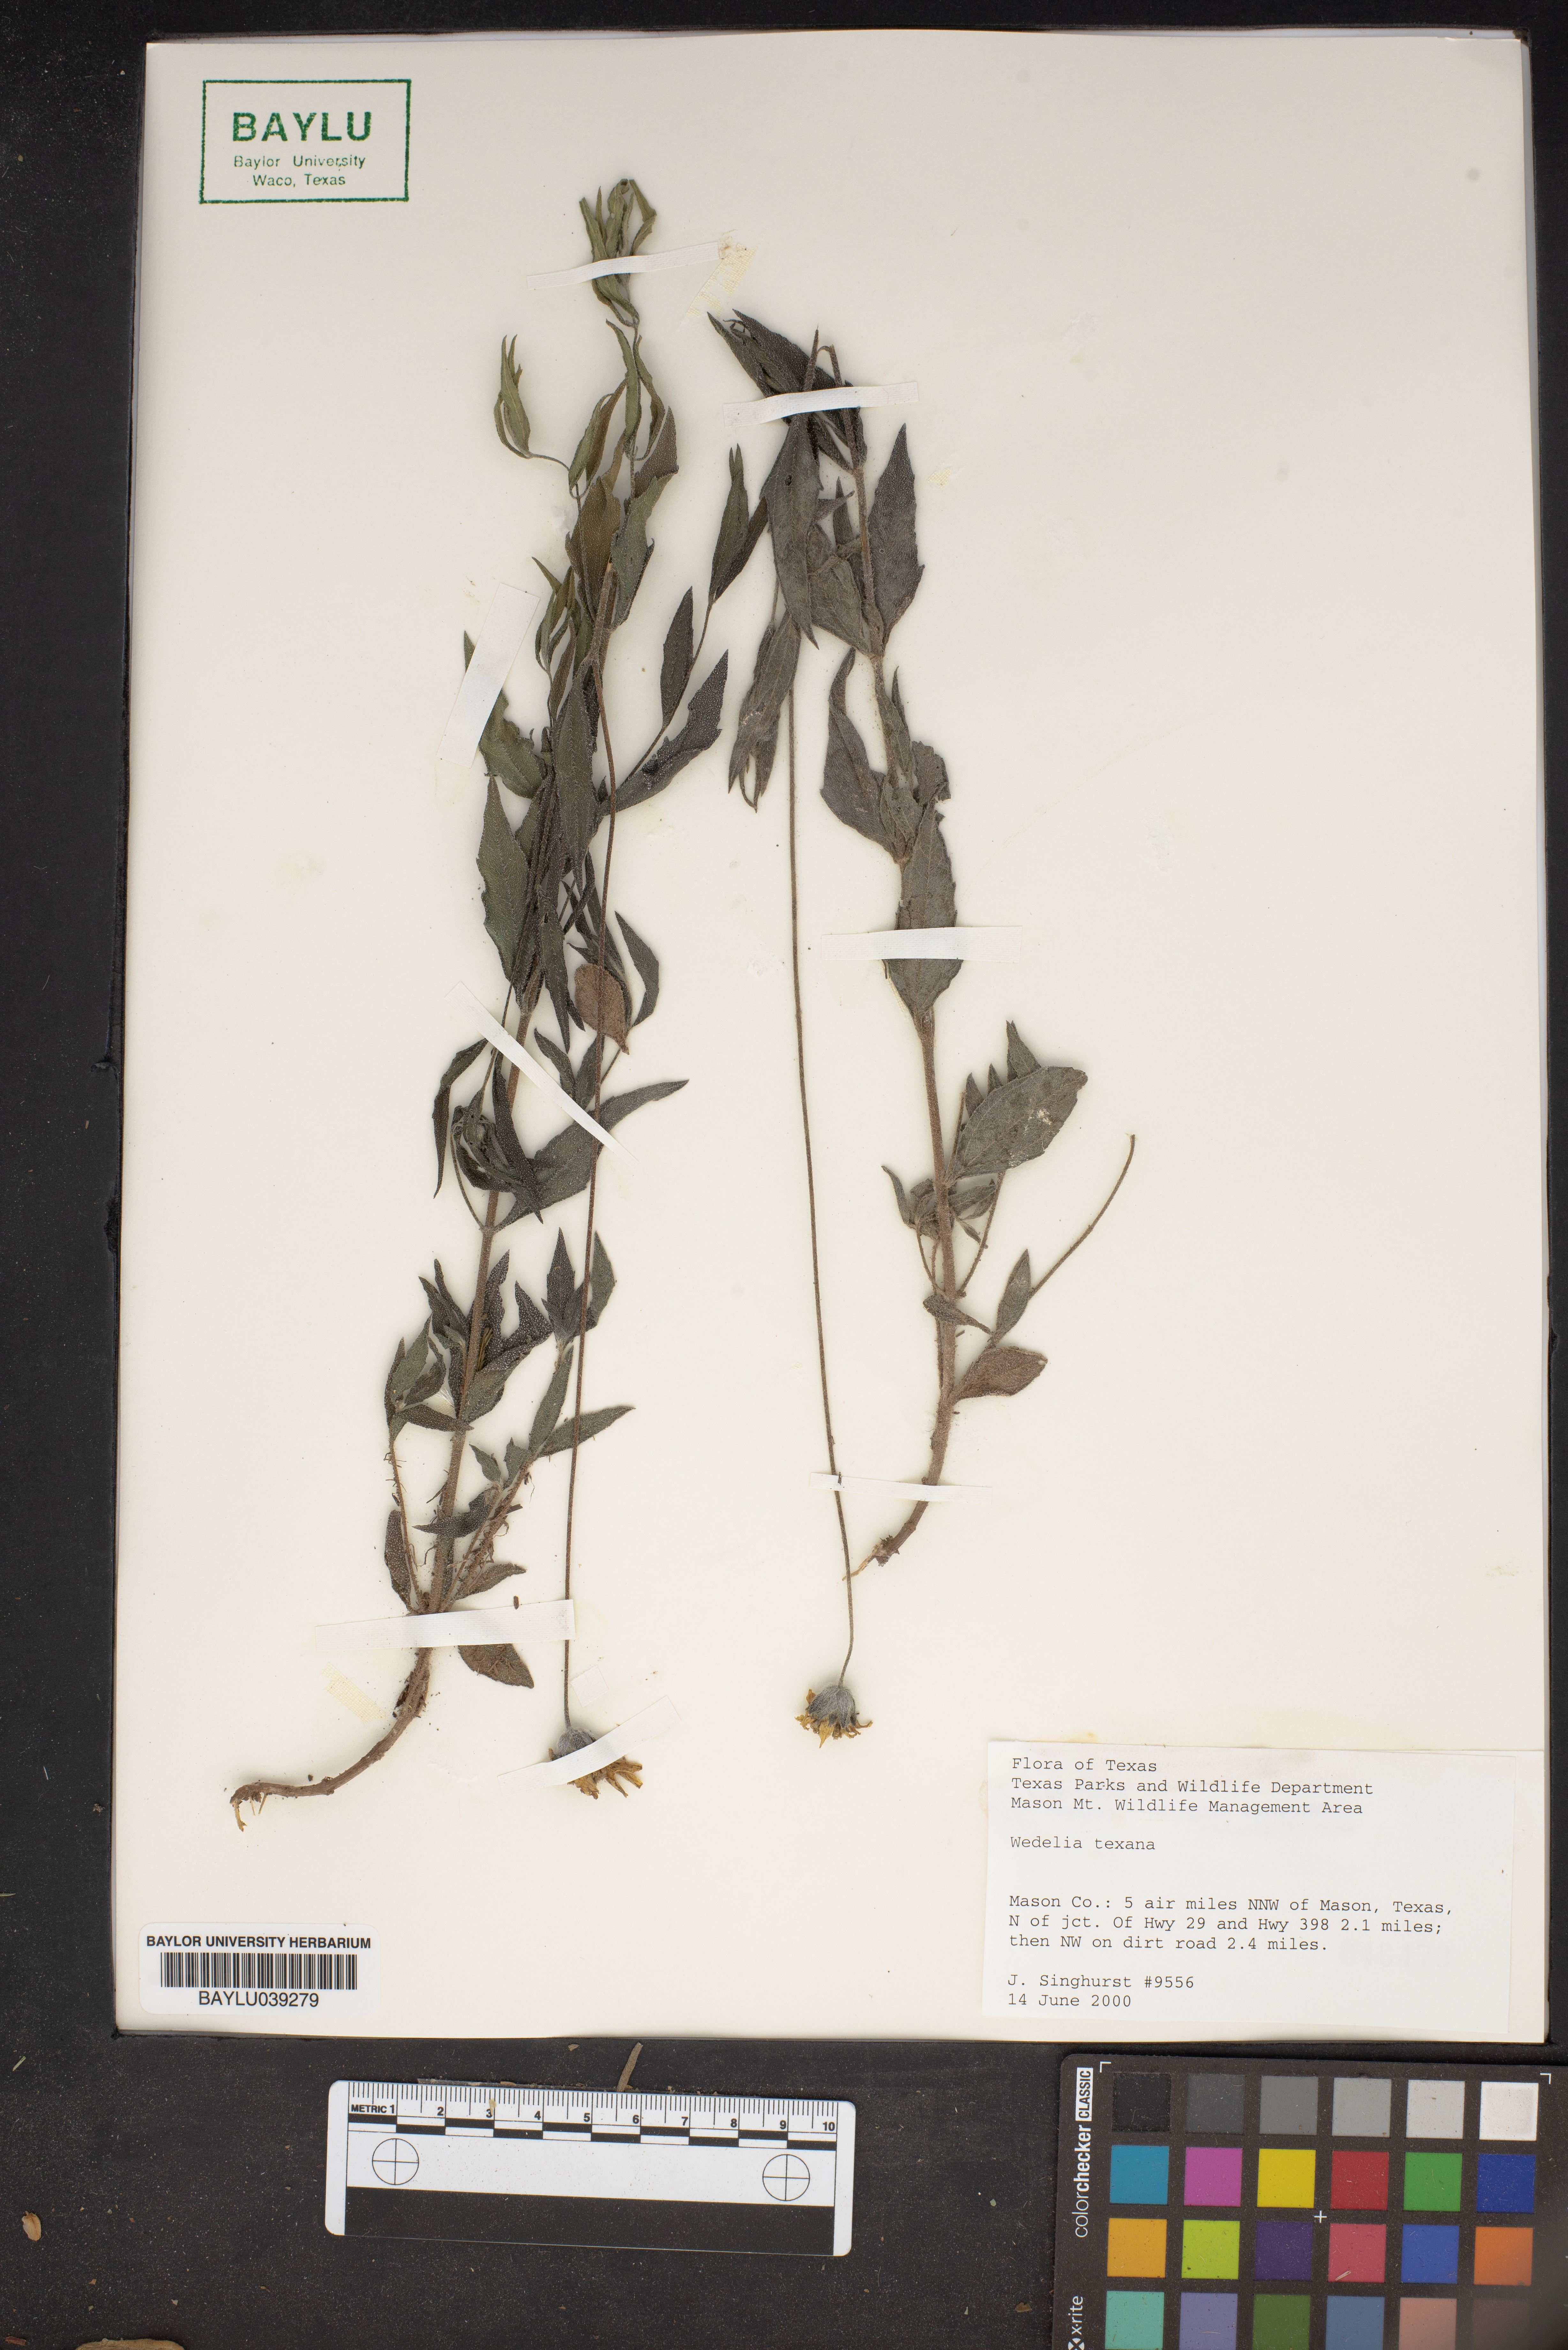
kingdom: Plantae
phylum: Tracheophyta
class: Magnoliopsida
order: Asterales
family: Asteraceae
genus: Wedelia
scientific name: Wedelia acapulcensis
